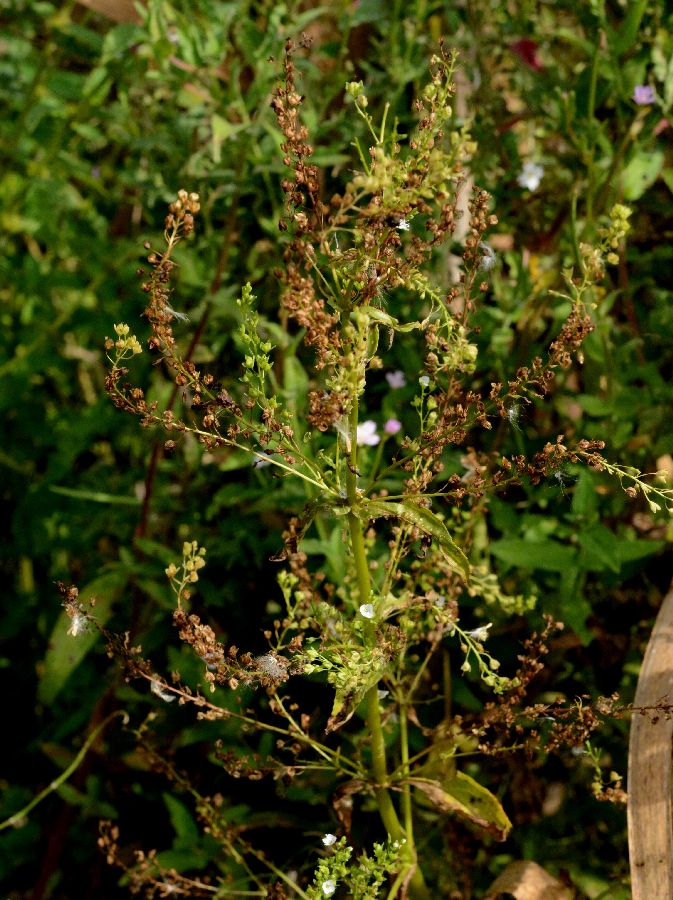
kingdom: Plantae
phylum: Tracheophyta
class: Magnoliopsida
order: Lamiales
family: Plantaginaceae
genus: Veronica
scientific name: Veronica anagallis-aquatica
